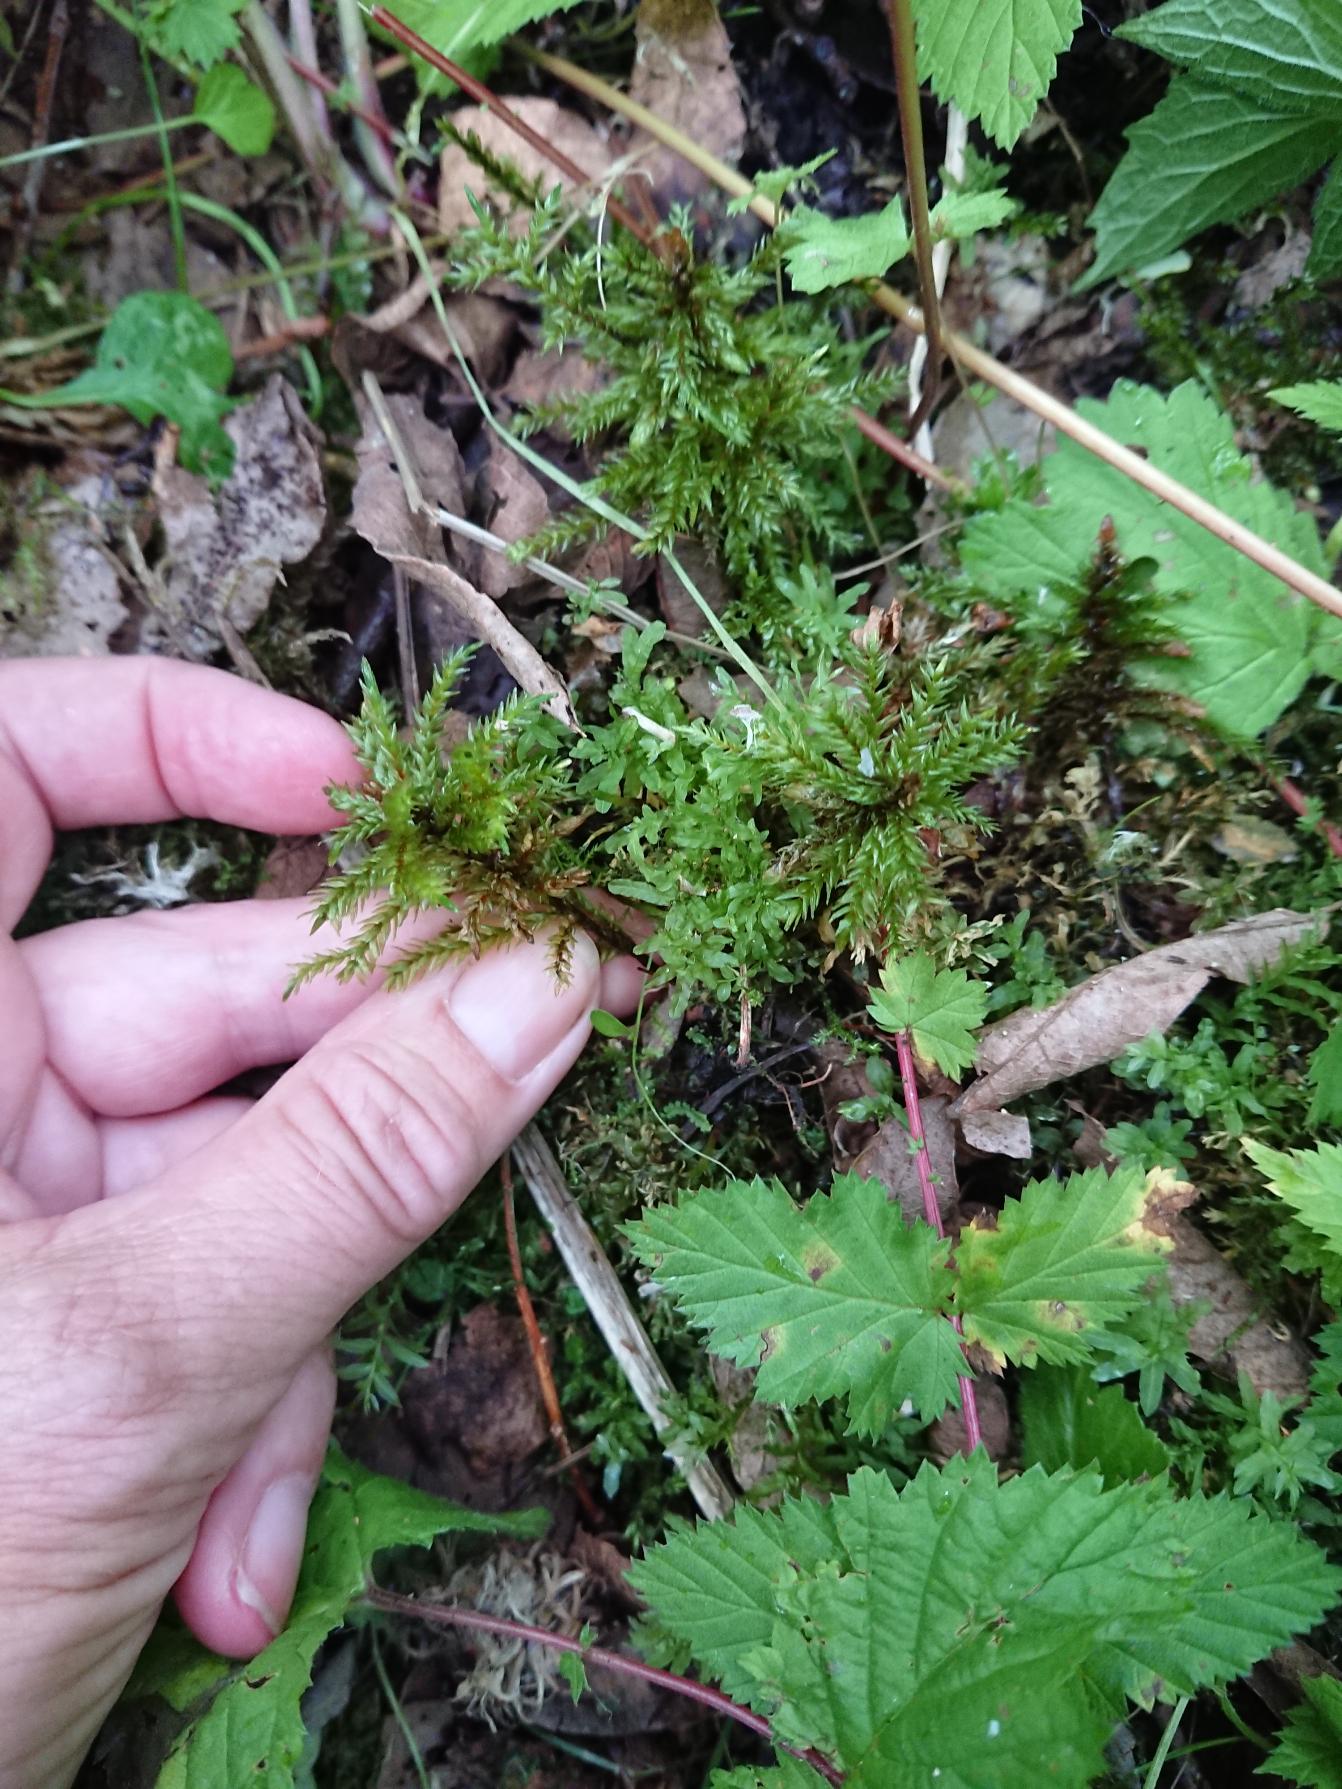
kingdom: Plantae
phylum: Bryophyta
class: Bryopsida
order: Hypnales
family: Climaciaceae
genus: Climacium
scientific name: Climacium dendroides
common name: Stor engkost
